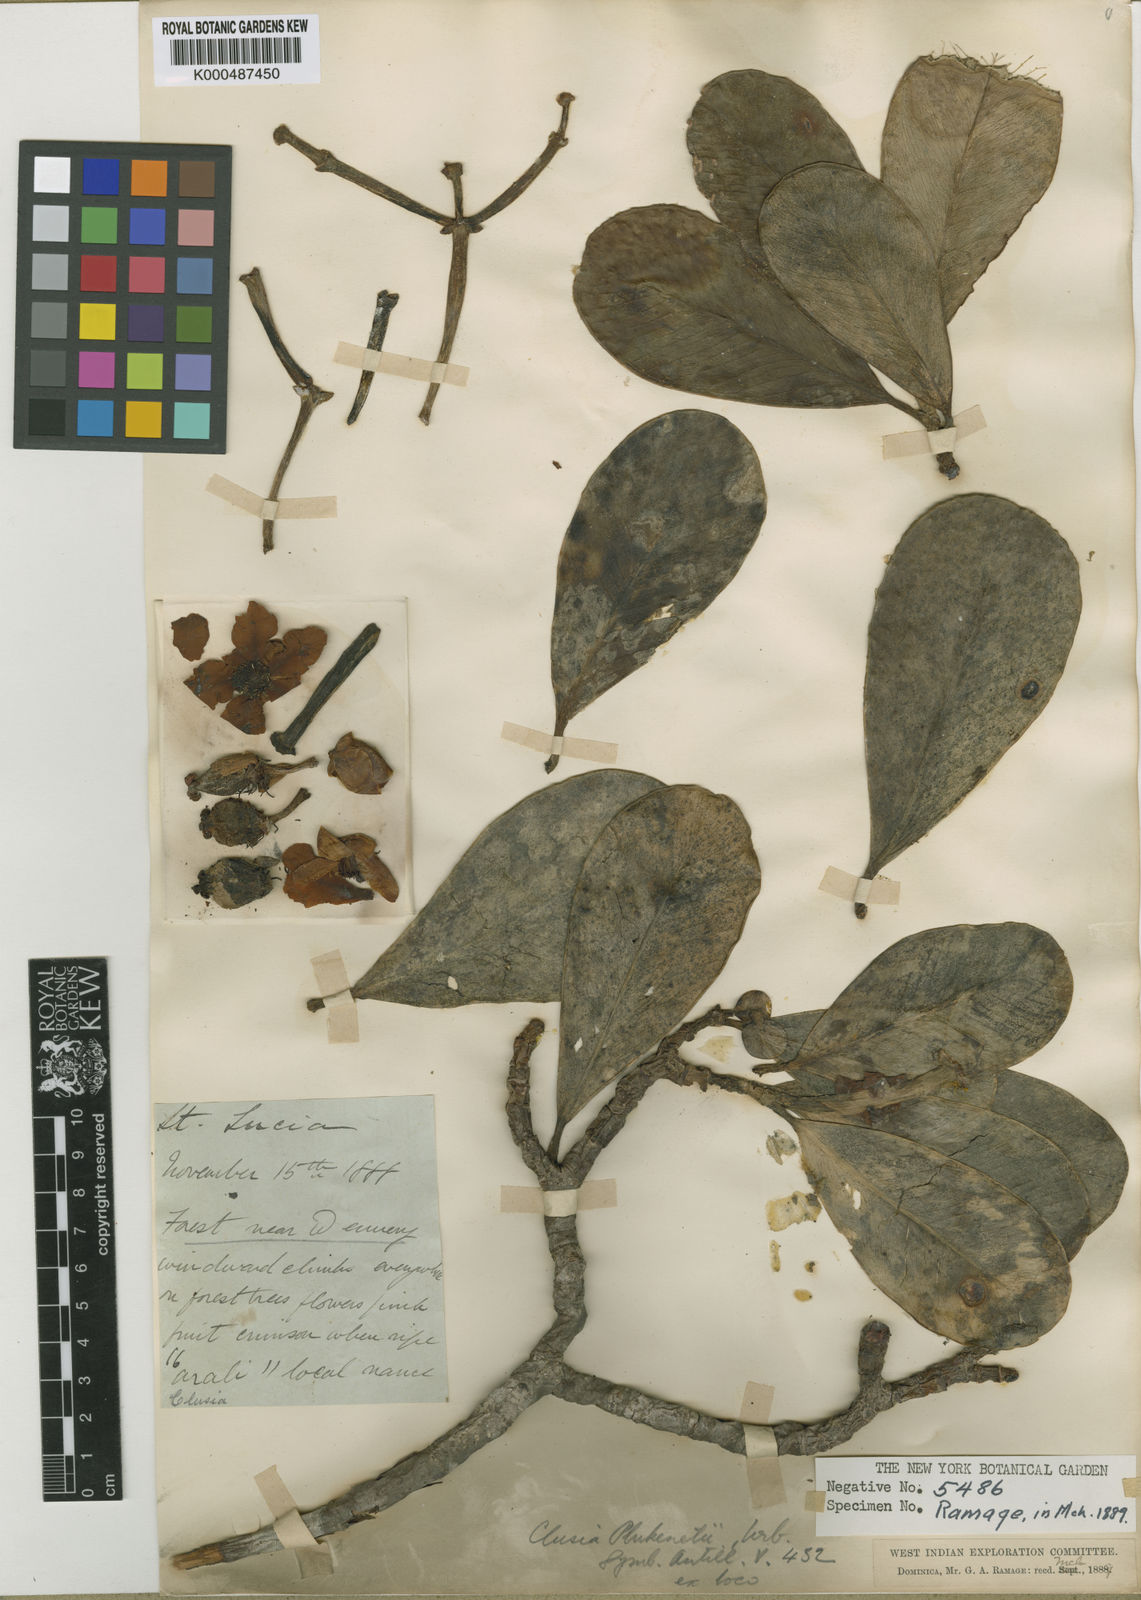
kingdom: Plantae
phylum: Tracheophyta
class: Magnoliopsida
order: Malpighiales
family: Clusiaceae
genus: Clusia
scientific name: Clusia plukenetii
